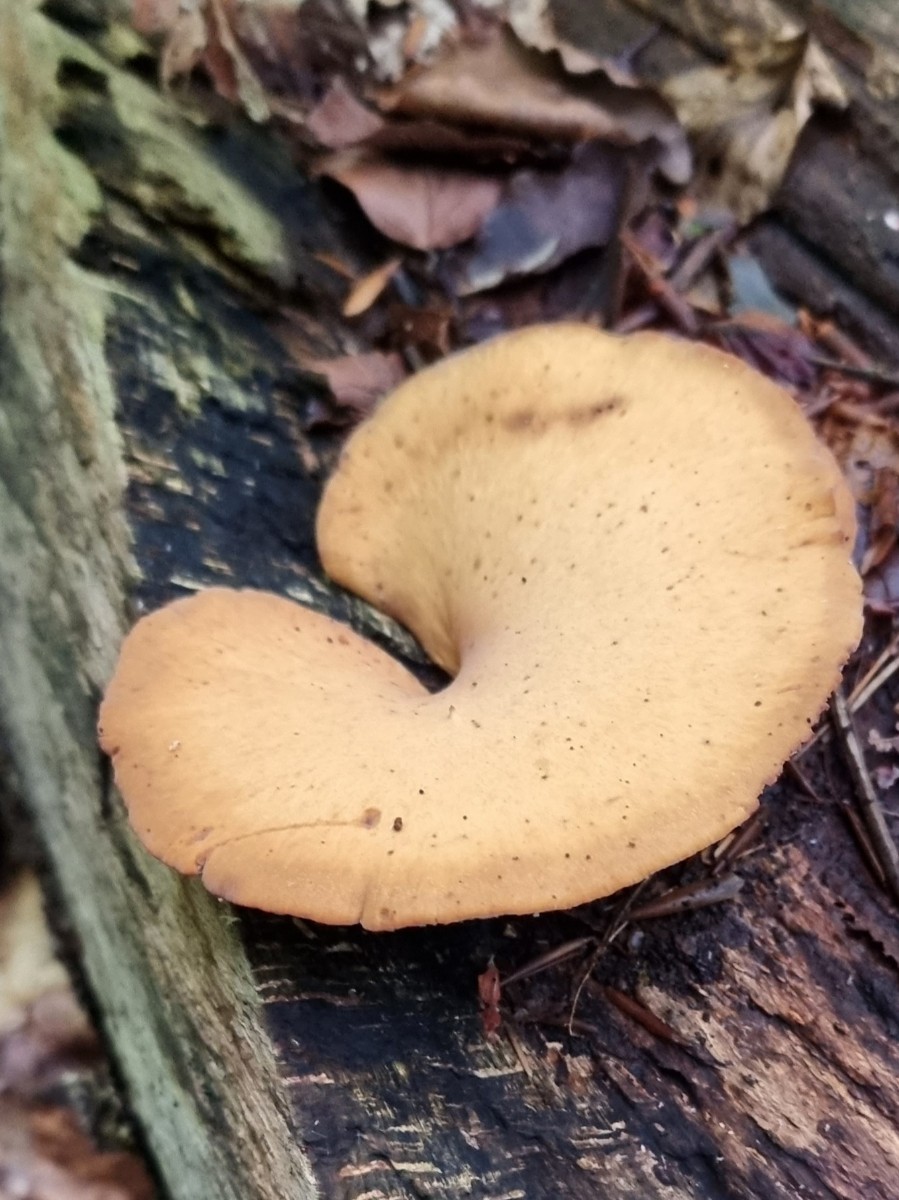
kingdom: Fungi
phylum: Basidiomycota
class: Agaricomycetes
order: Polyporales
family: Polyporaceae
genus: Cerioporus
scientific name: Cerioporus varius
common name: foranderlig stilkporesvamp
